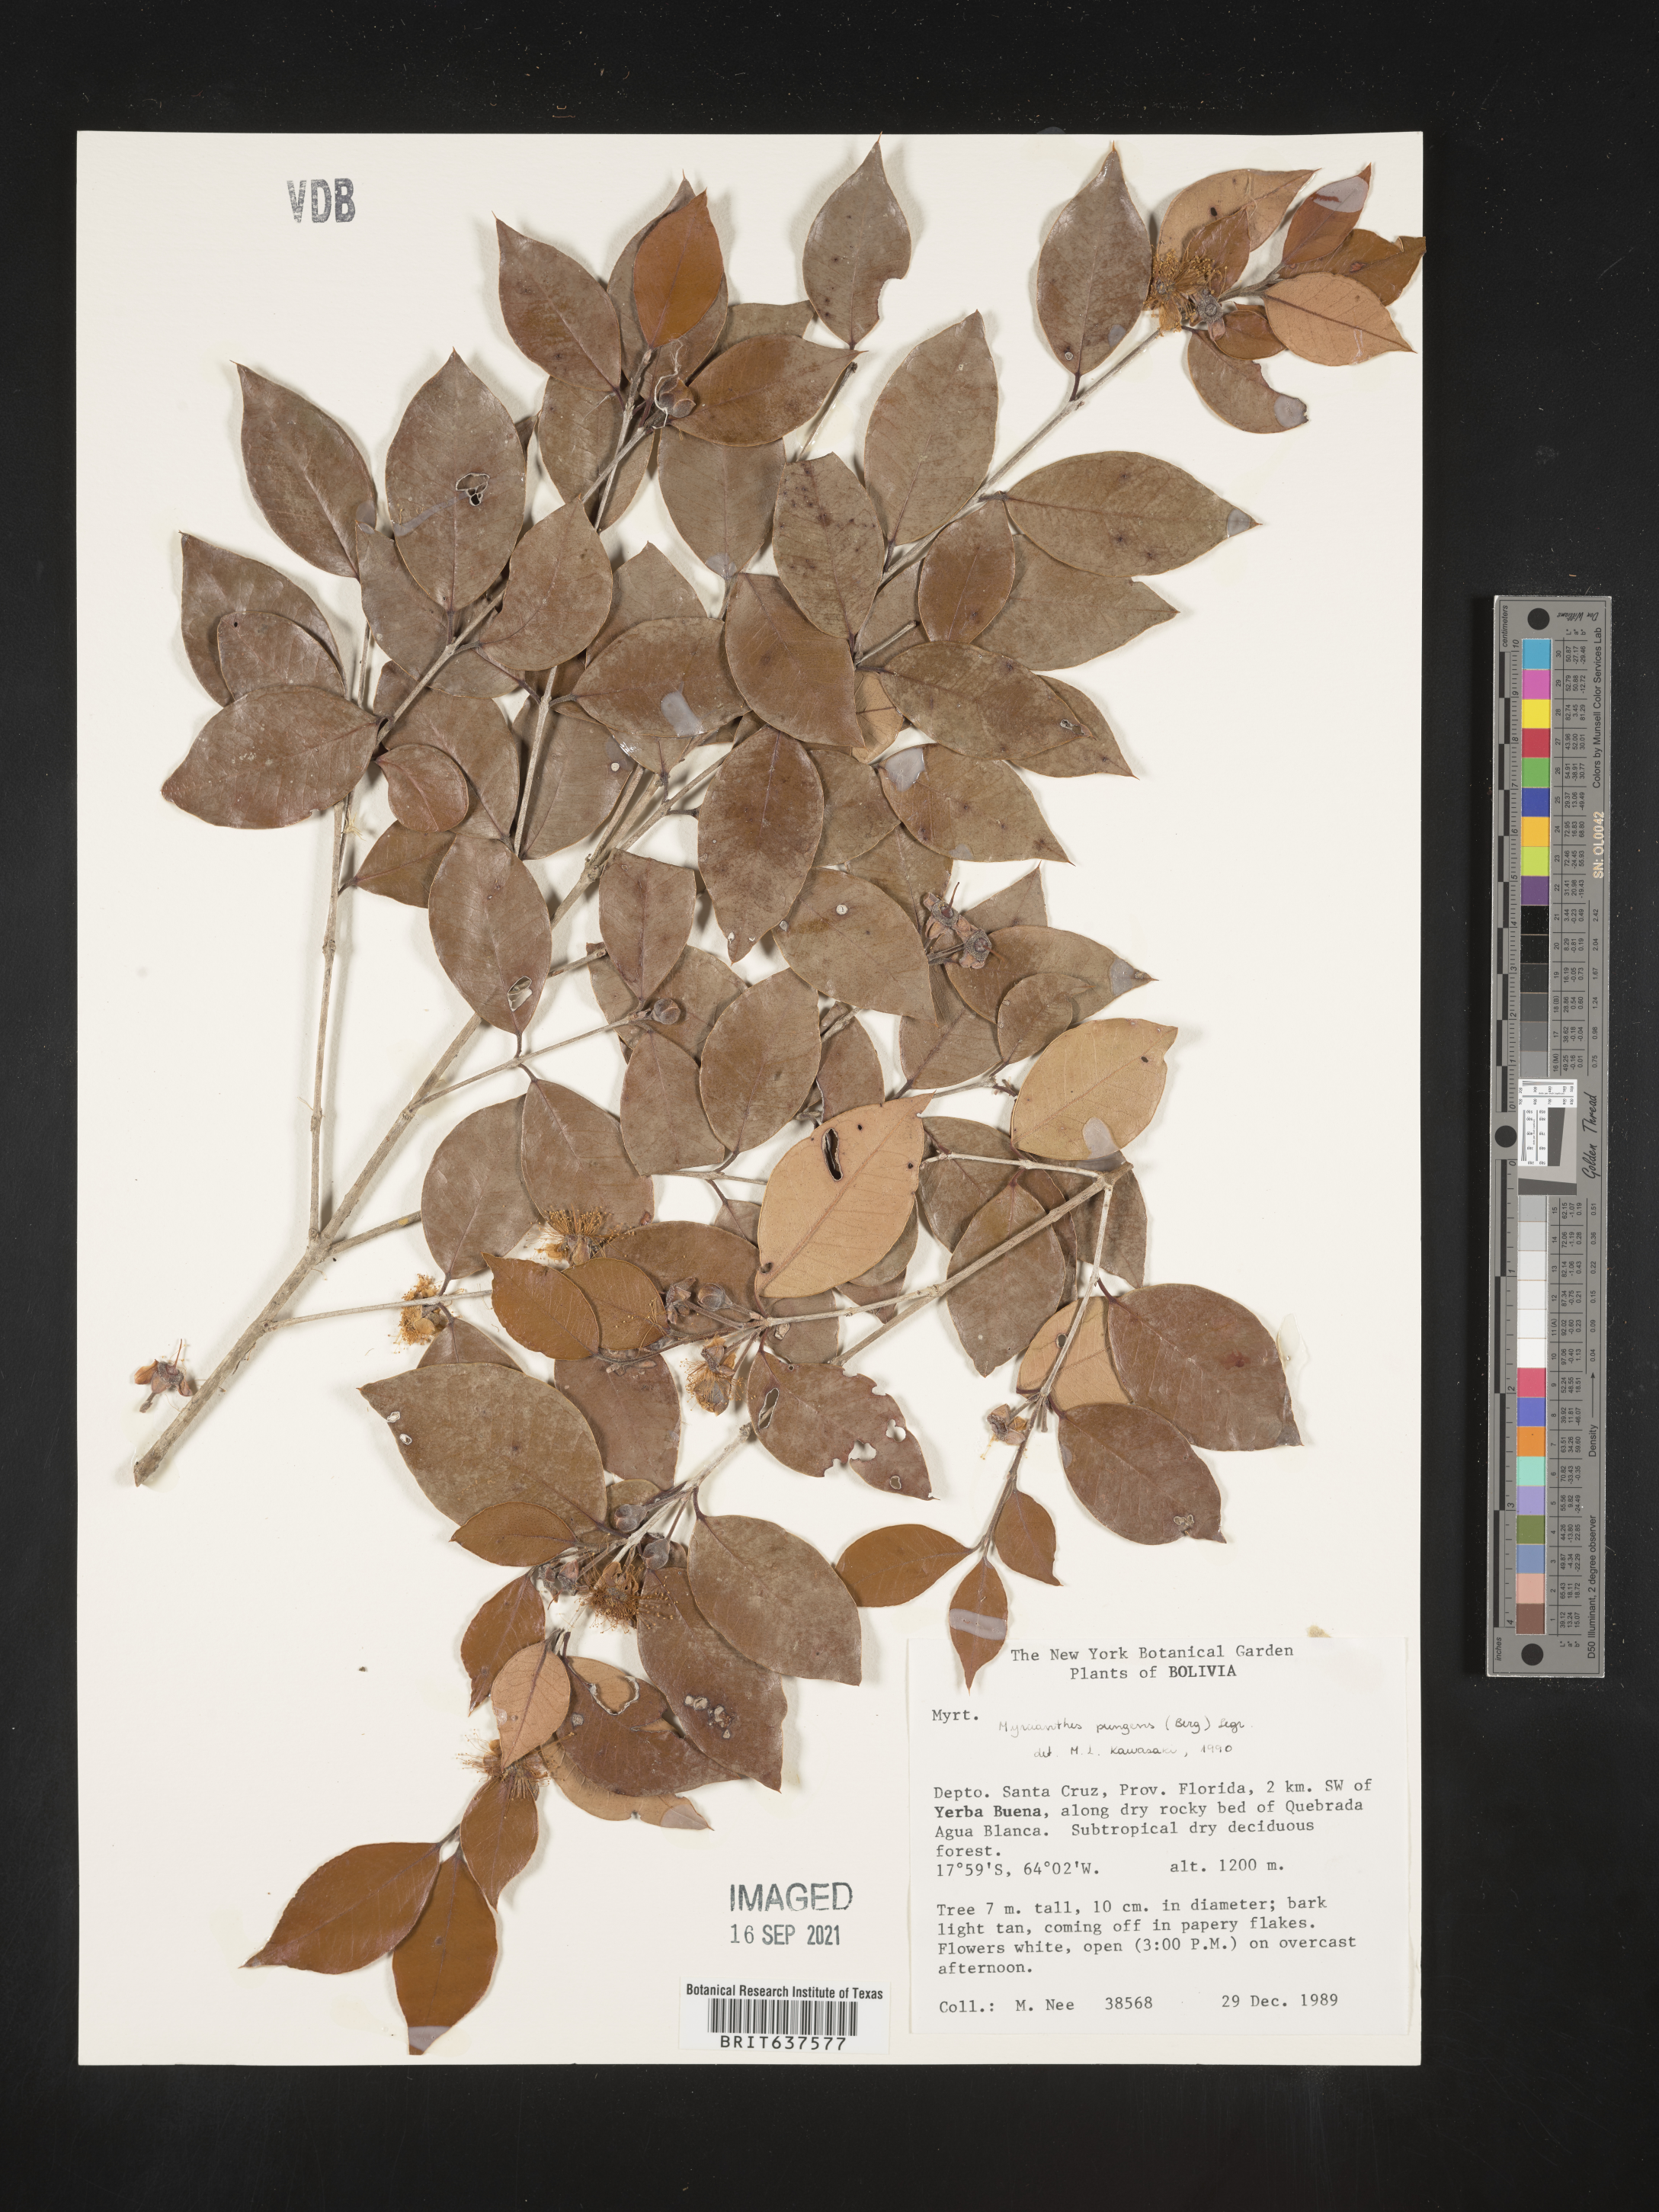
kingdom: Plantae
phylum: Tracheophyta
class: Magnoliopsida
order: Myrtales
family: Myrtaceae
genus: Myrcianthes
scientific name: Myrcianthes
